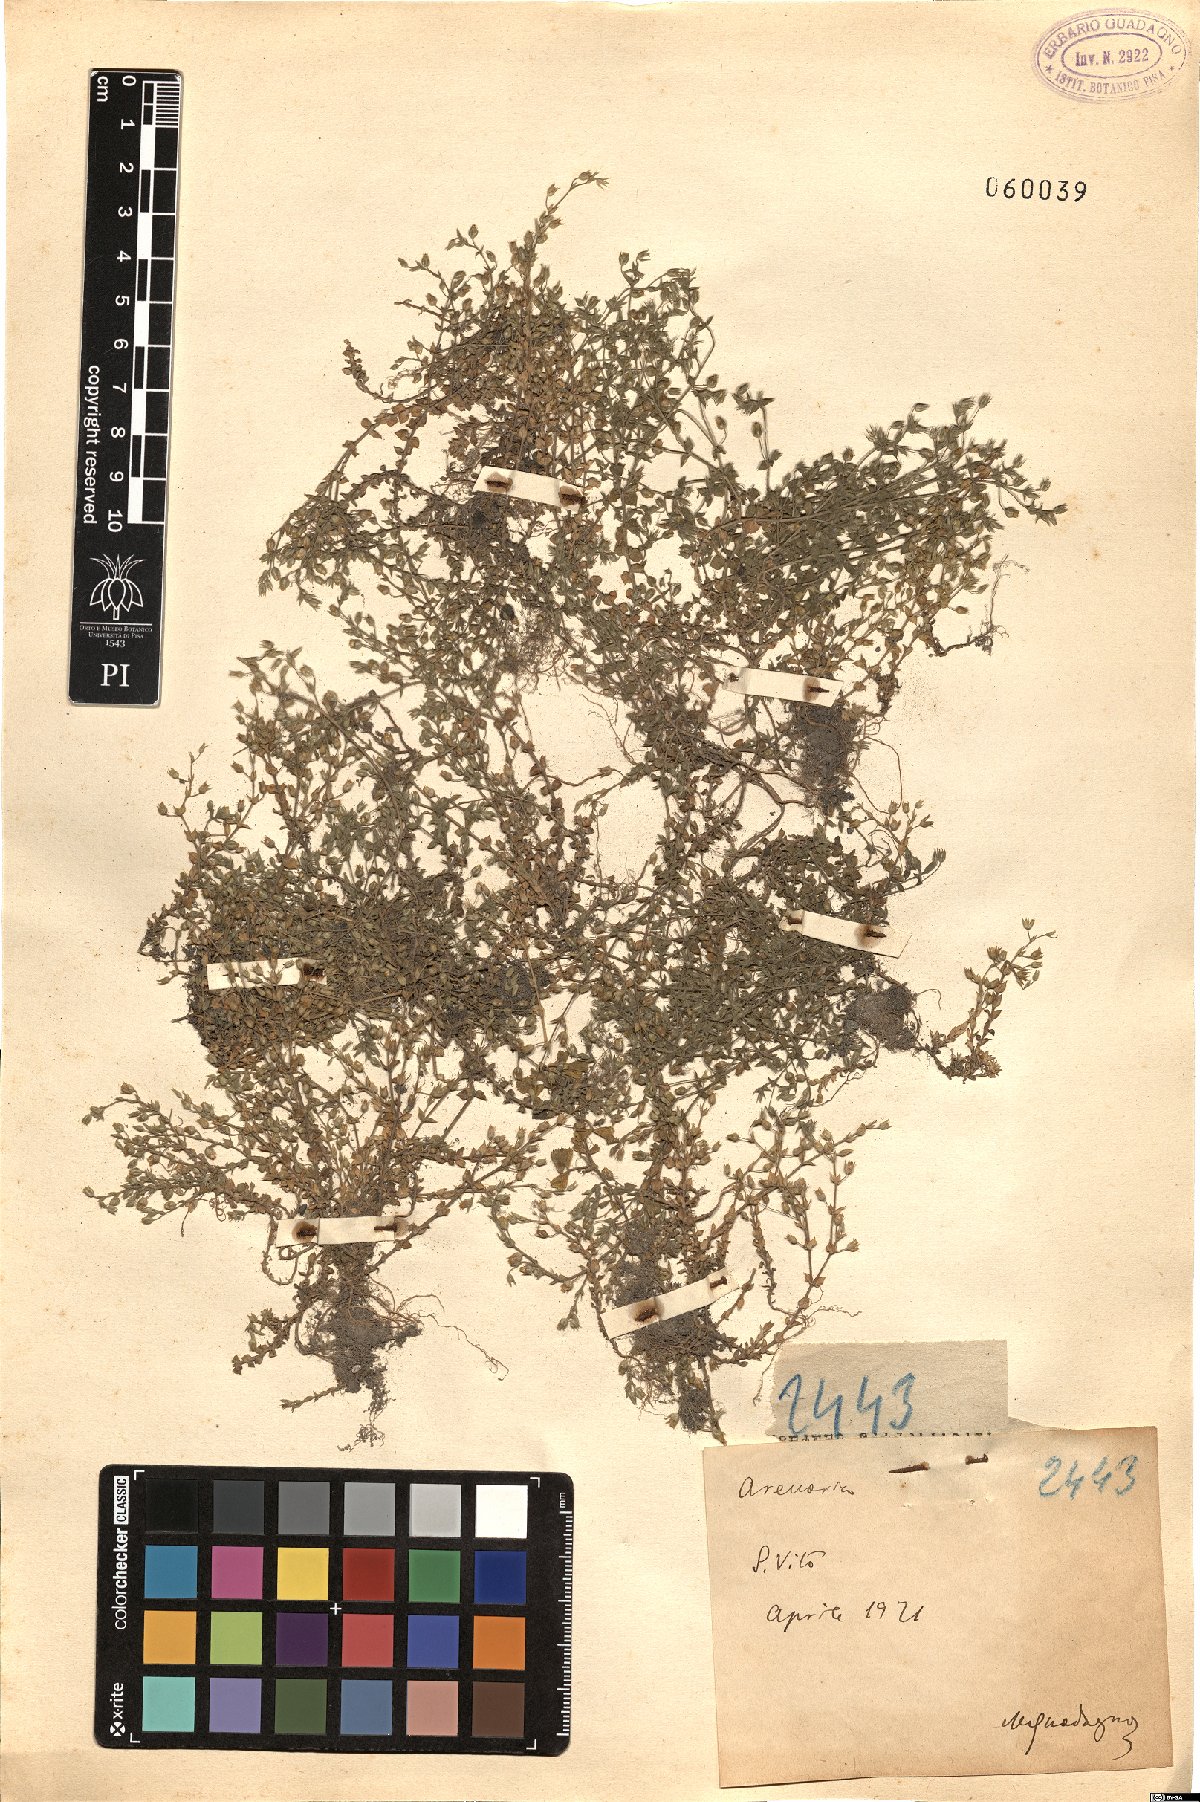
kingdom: Plantae
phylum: Tracheophyta
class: Magnoliopsida
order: Caryophyllales
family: Caryophyllaceae
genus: Arenaria
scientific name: Arenaria
